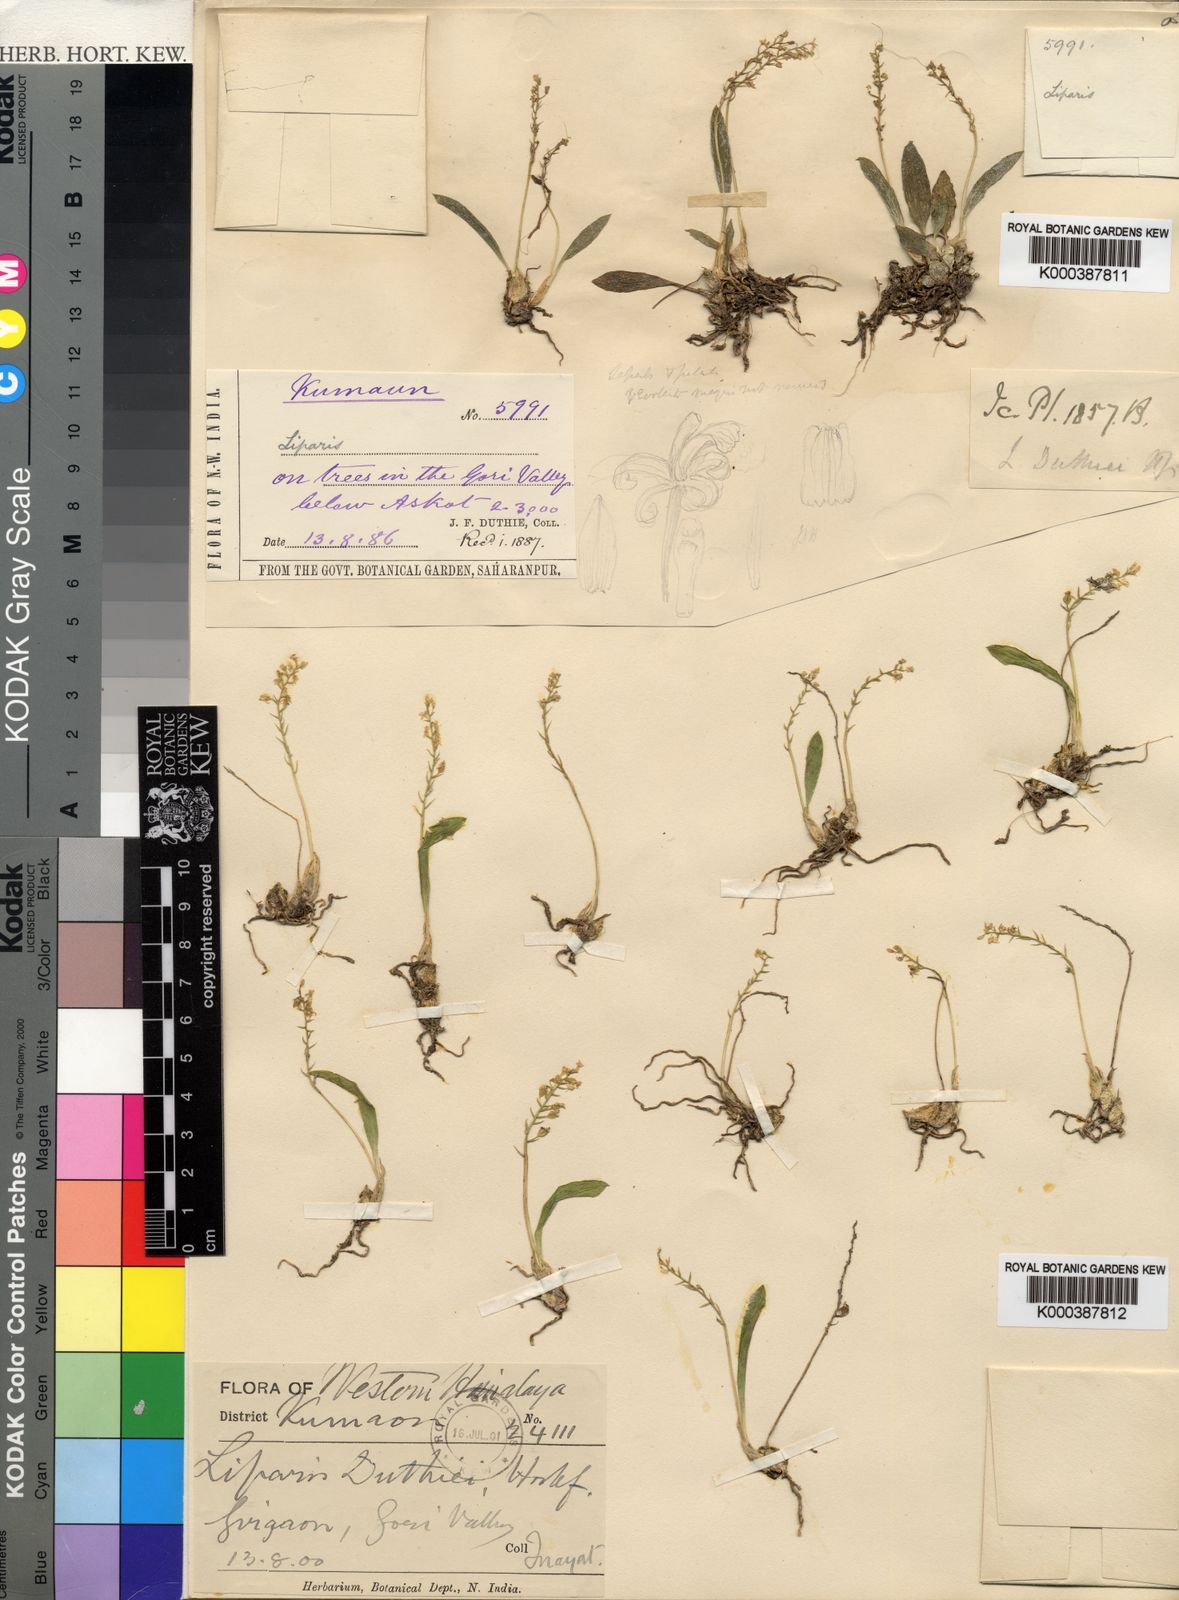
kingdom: Plantae
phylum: Tracheophyta
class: Liliopsida
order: Asparagales
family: Orchidaceae
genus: Liparis
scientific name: Liparis duthiei
